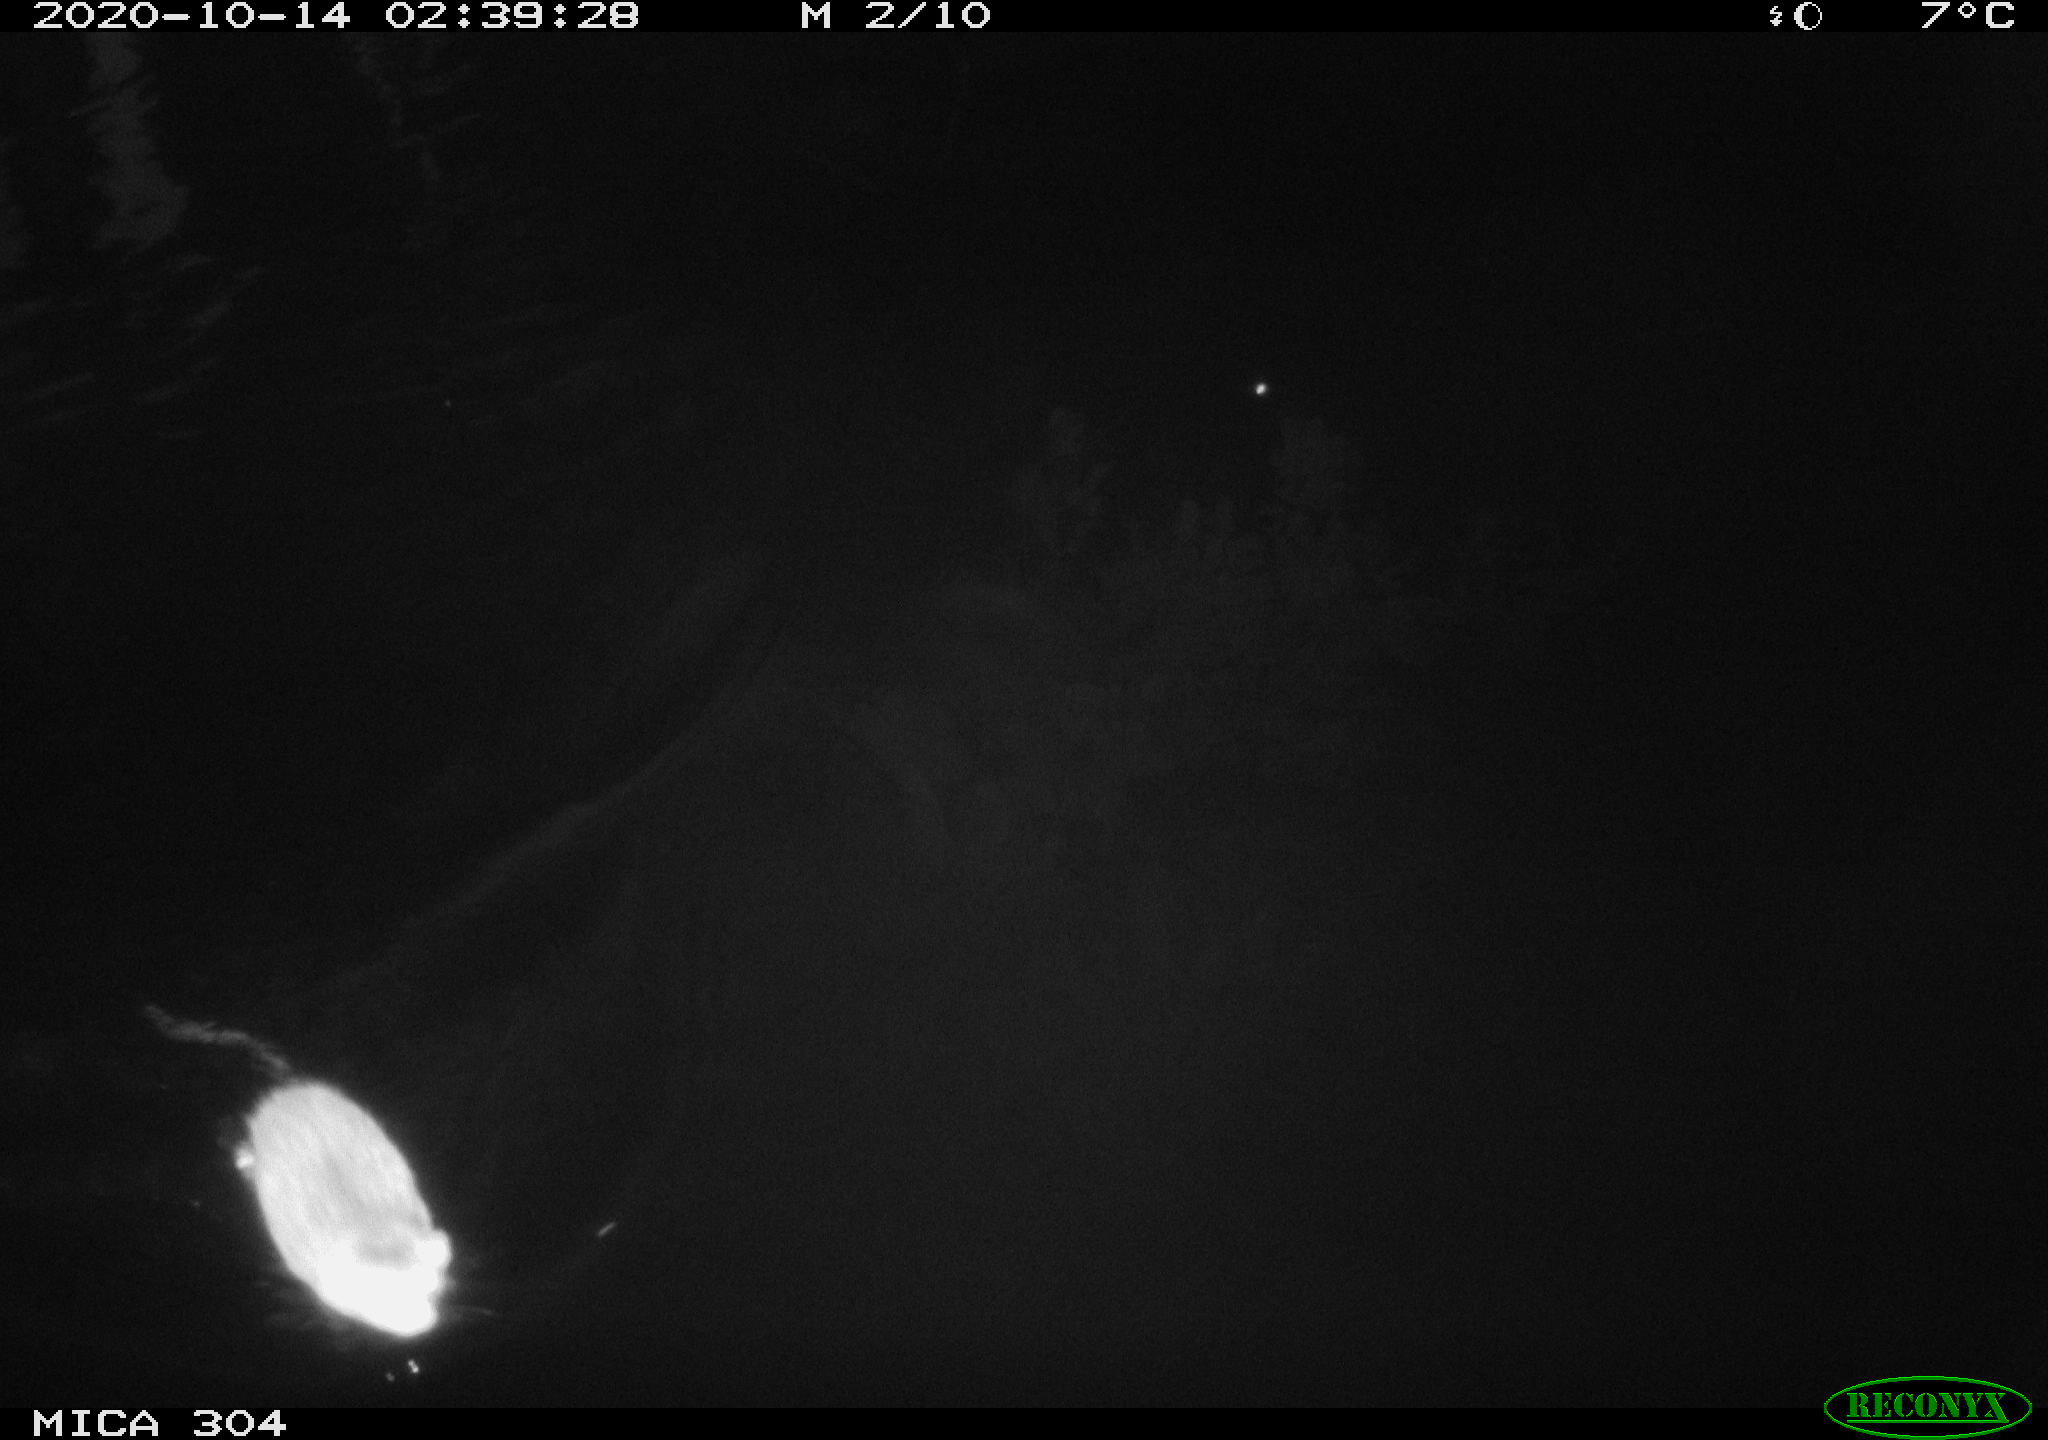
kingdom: Animalia
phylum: Chordata
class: Mammalia
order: Rodentia
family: Cricetidae
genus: Ondatra
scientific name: Ondatra zibethicus
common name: Muskrat
